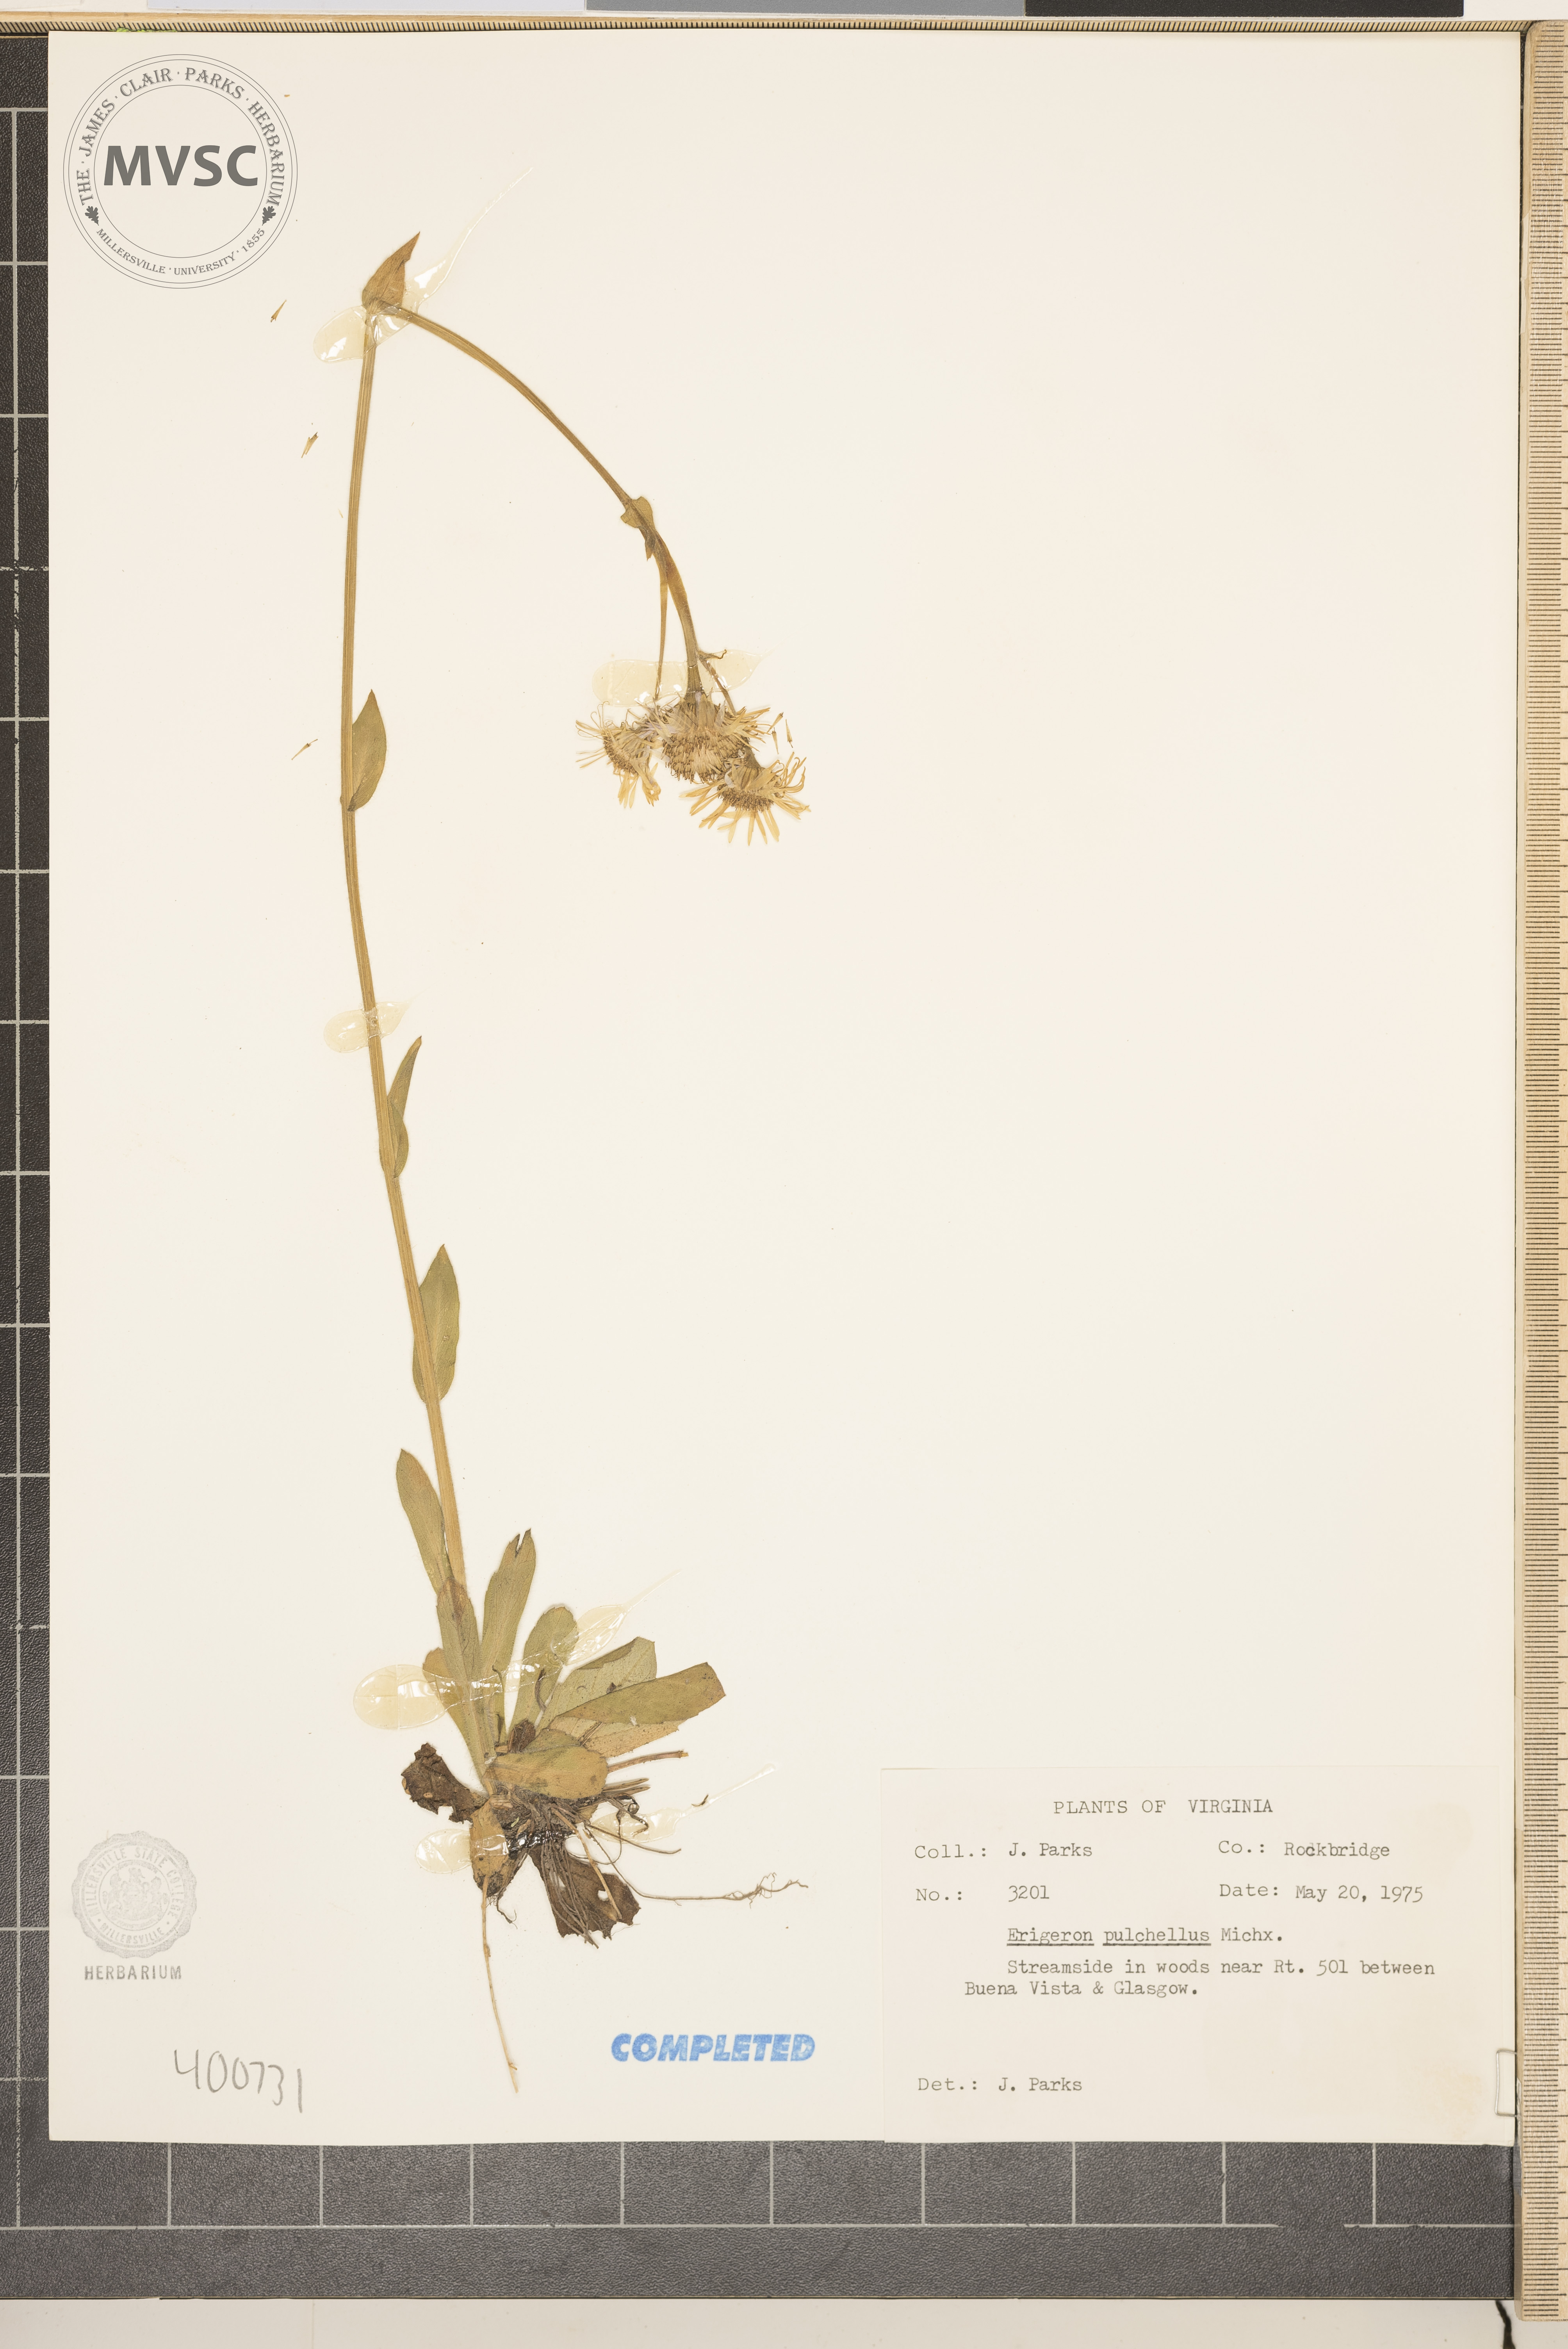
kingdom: Plantae
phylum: Tracheophyta
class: Magnoliopsida
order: Asterales
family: Asteraceae
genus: Erigeron
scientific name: Erigeron pulchellus
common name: Hairy fleabane
